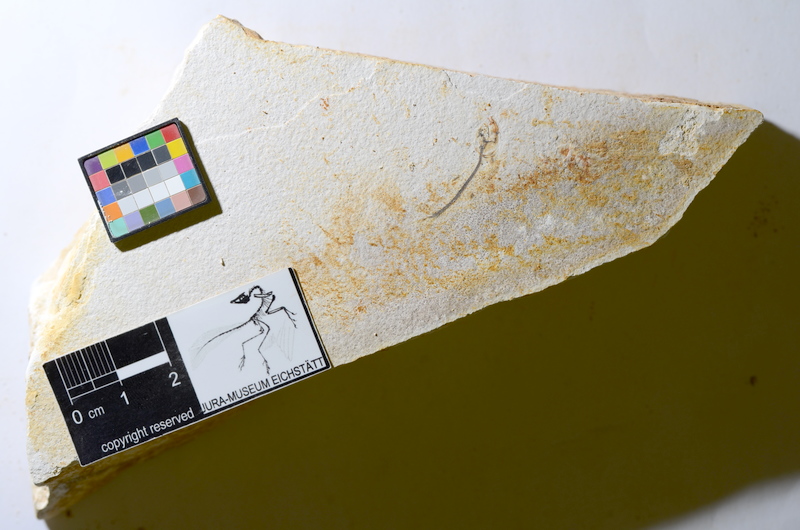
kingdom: Animalia
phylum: Chordata
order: Salmoniformes
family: Orthogonikleithridae
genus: Orthogonikleithrus
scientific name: Orthogonikleithrus hoelli
